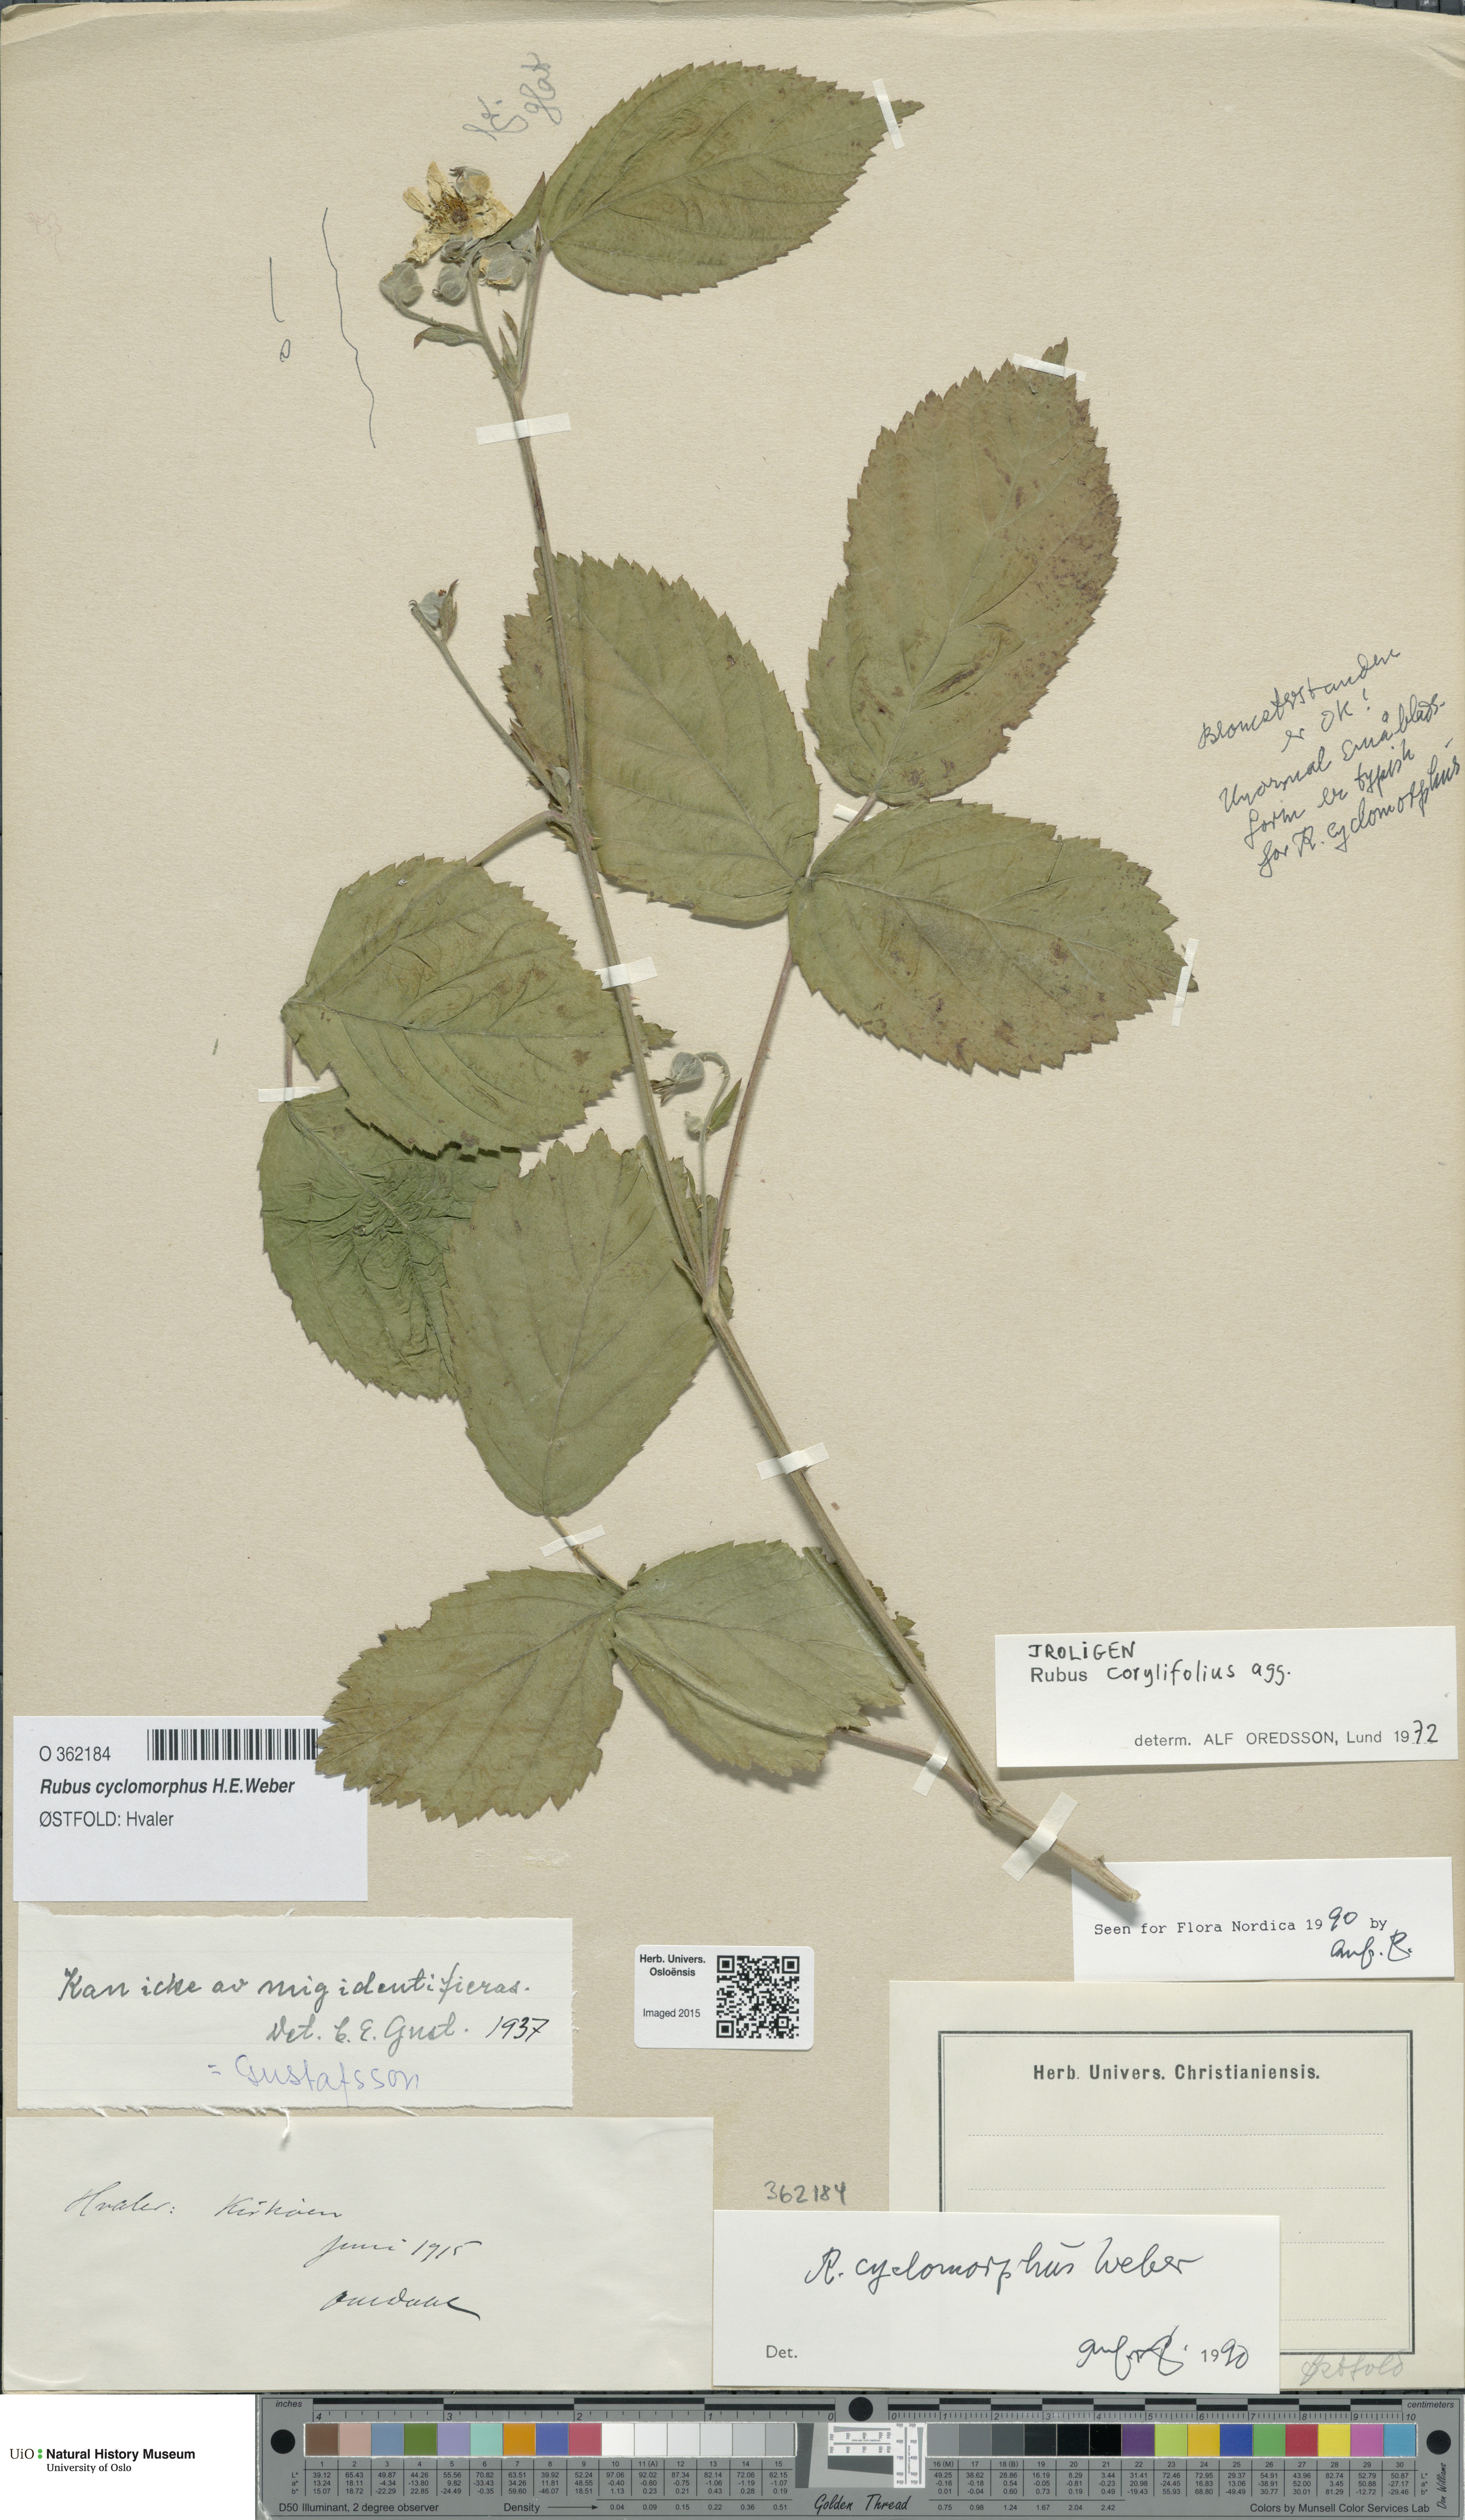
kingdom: Plantae
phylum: Tracheophyta
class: Magnoliopsida
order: Rosales
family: Rosaceae
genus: Rubus
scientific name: Rubus cyclomorphus
